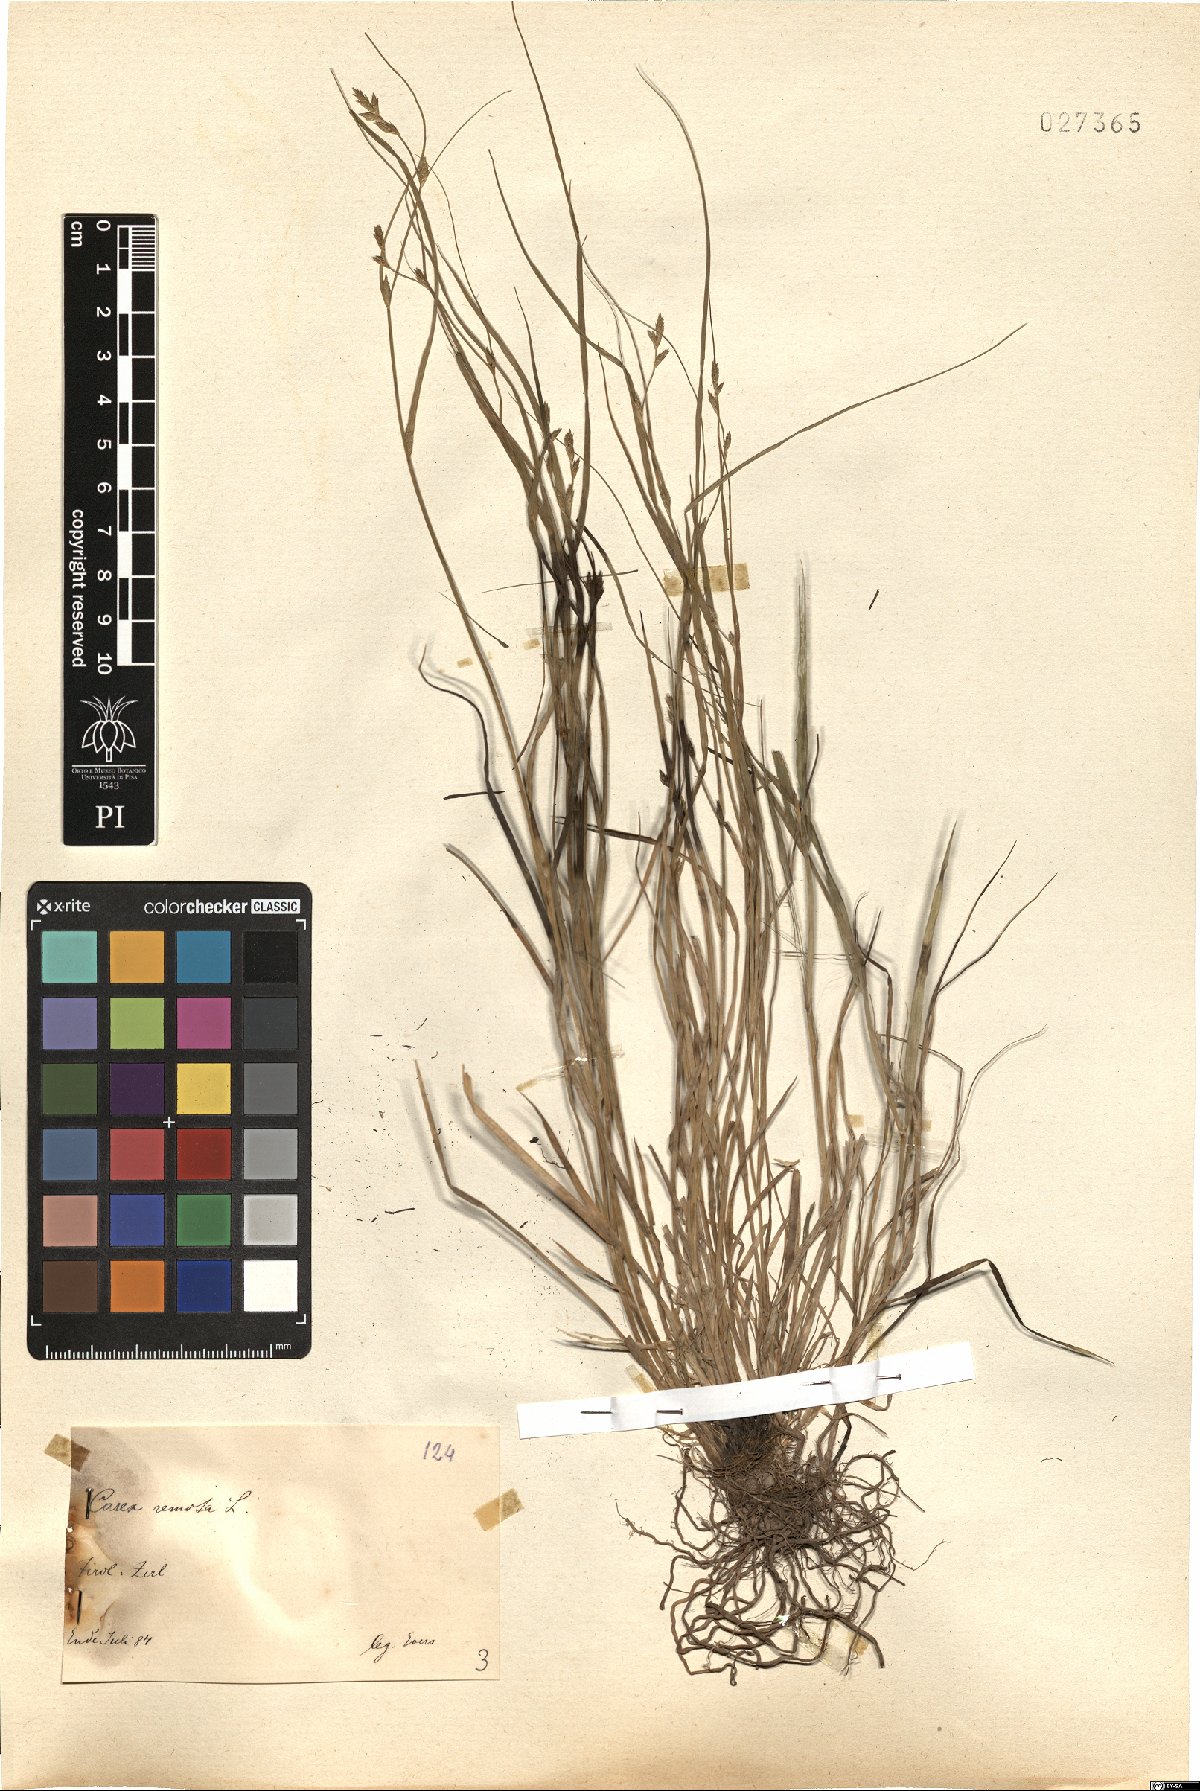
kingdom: Plantae
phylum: Tracheophyta
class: Liliopsida
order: Poales
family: Cyperaceae
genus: Carex
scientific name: Carex remota
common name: Remote sedge
